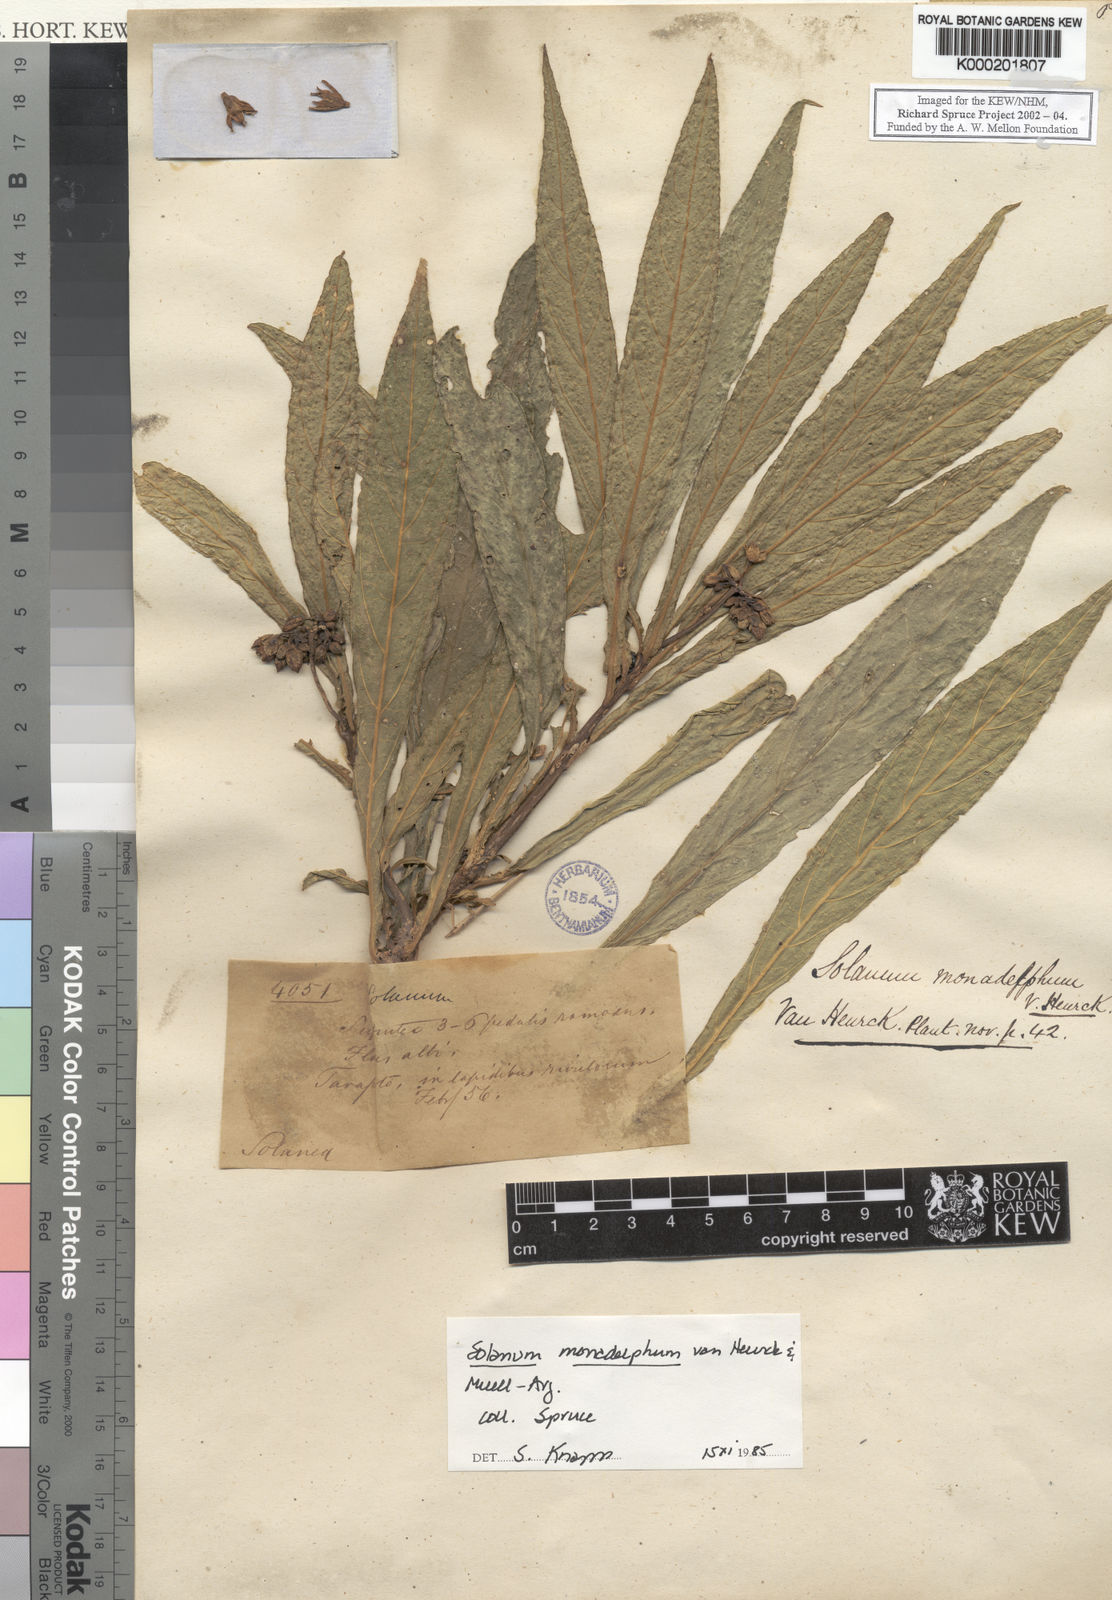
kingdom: Plantae
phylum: Tracheophyta
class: Magnoliopsida
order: Solanales
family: Solanaceae
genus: Solanum
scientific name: Solanum
